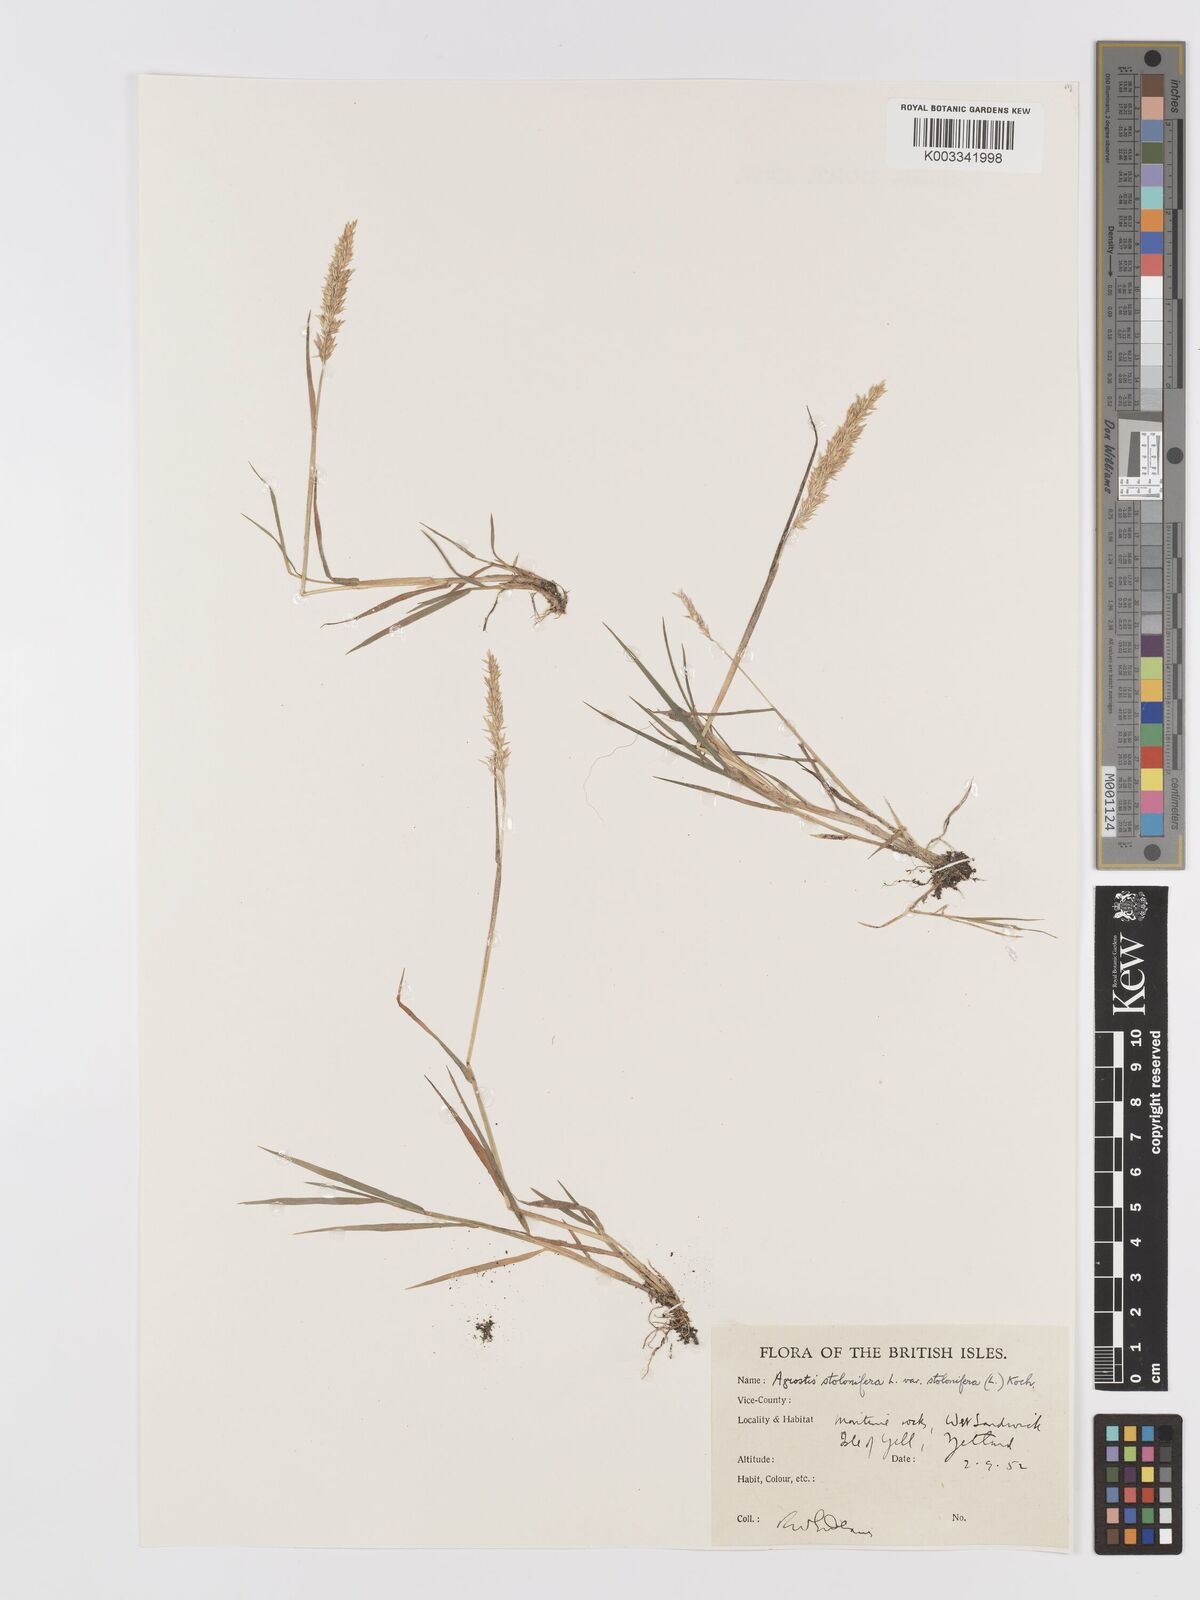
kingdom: Plantae
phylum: Tracheophyta
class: Liliopsida
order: Poales
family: Poaceae
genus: Agrostis
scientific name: Agrostis stolonifera
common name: Creeping bentgrass
